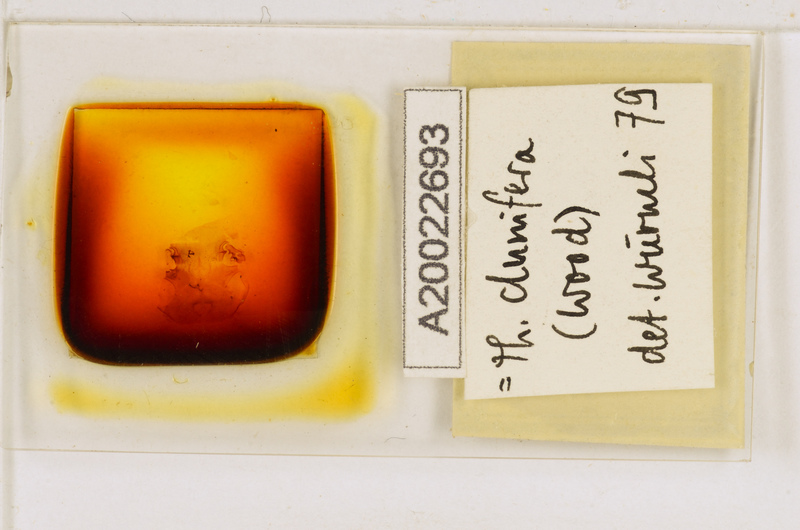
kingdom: Animalia
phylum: Arthropoda
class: Chilopoda
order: Scutigeromorpha
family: Scutigeridae
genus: Thereuopoda
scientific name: Thereuopoda clunifera
